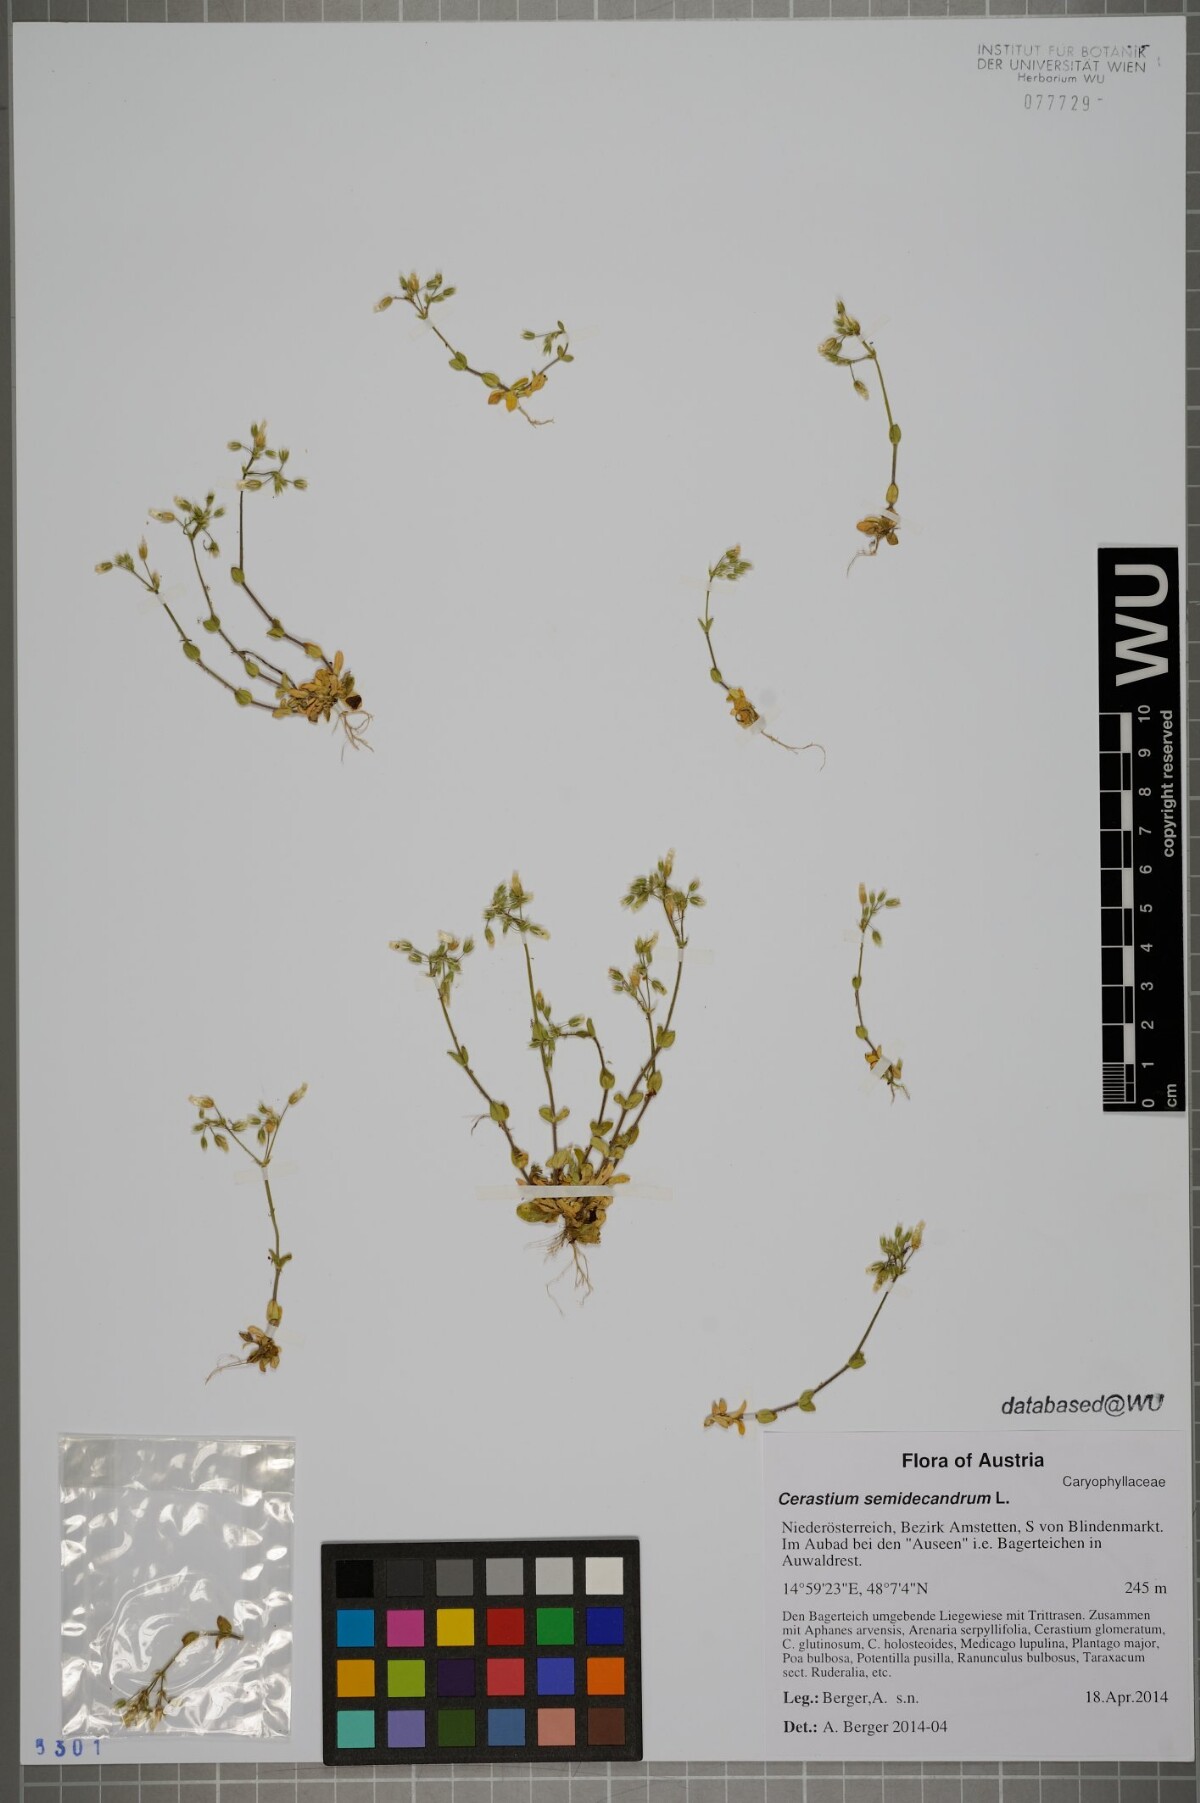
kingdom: Plantae
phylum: Tracheophyta
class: Magnoliopsida
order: Caryophyllales
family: Caryophyllaceae
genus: Cerastium
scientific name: Cerastium semidecandrum
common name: Little mouse-ear
